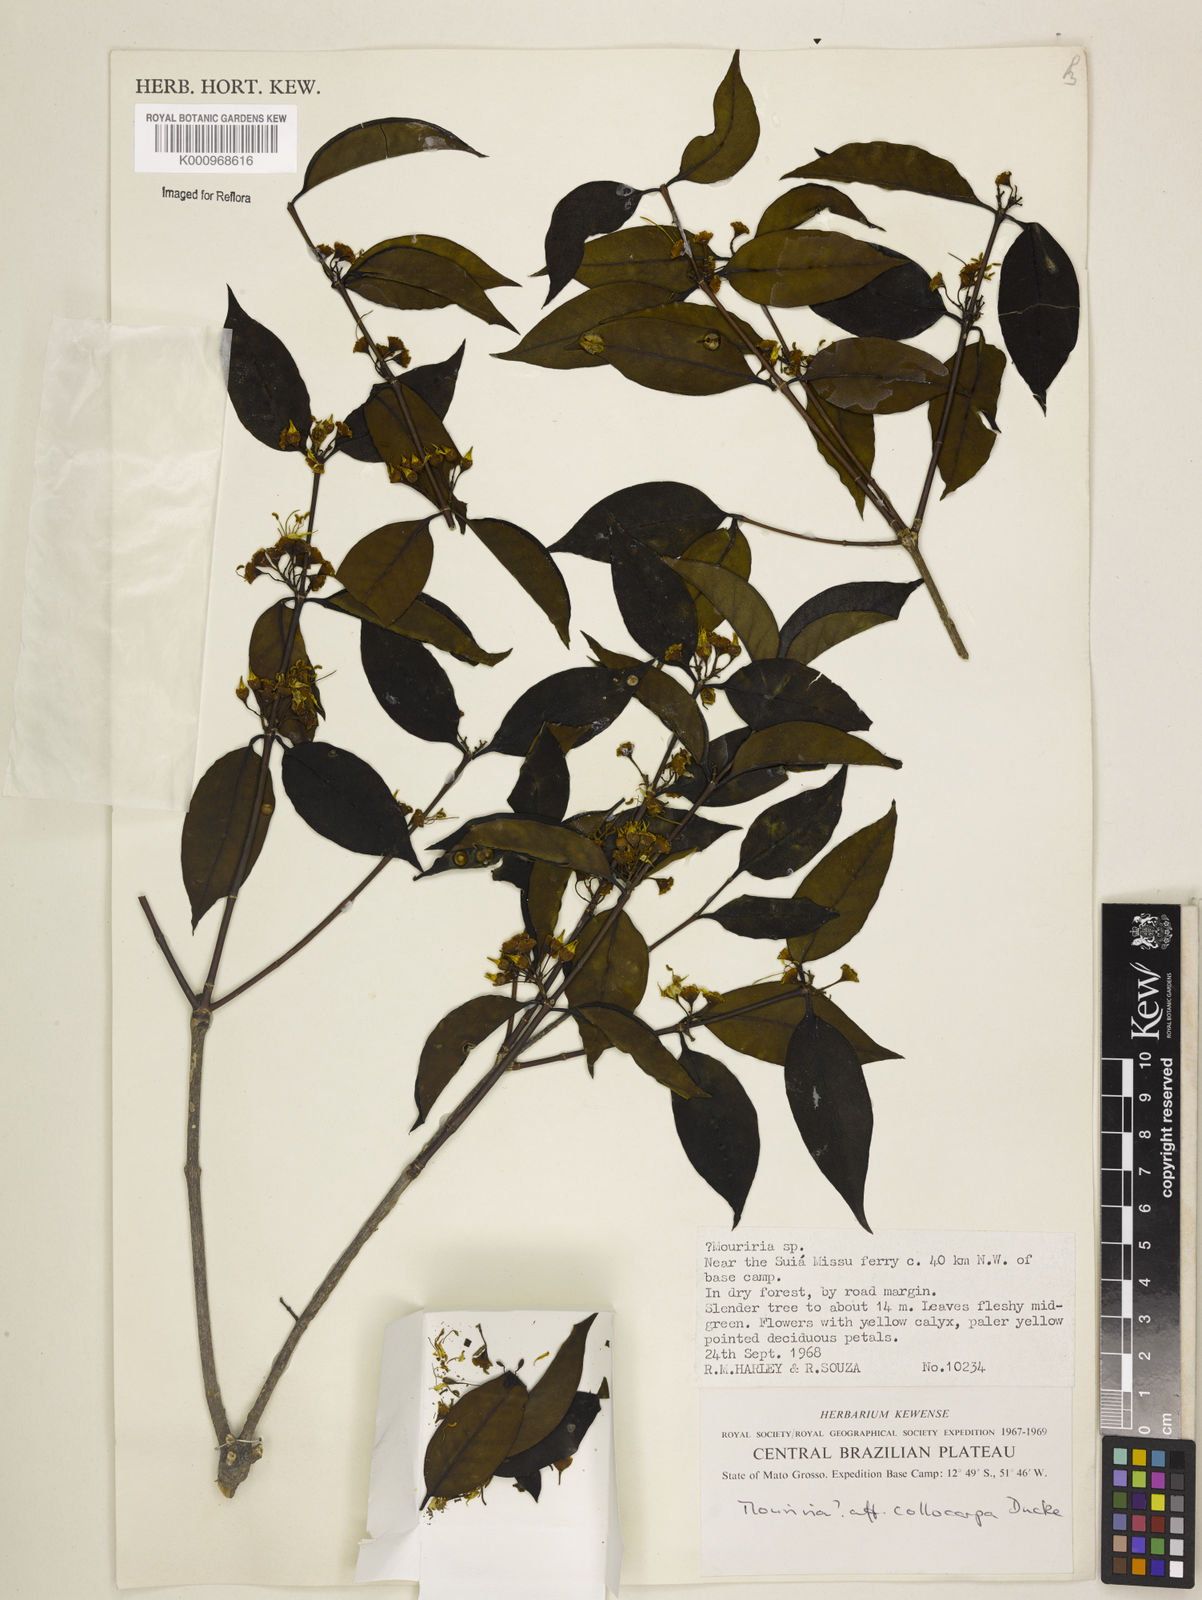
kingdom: Plantae
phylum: Tracheophyta
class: Magnoliopsida
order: Myrtales
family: Melastomataceae
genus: Mouriri
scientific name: Mouriri collocarpa
